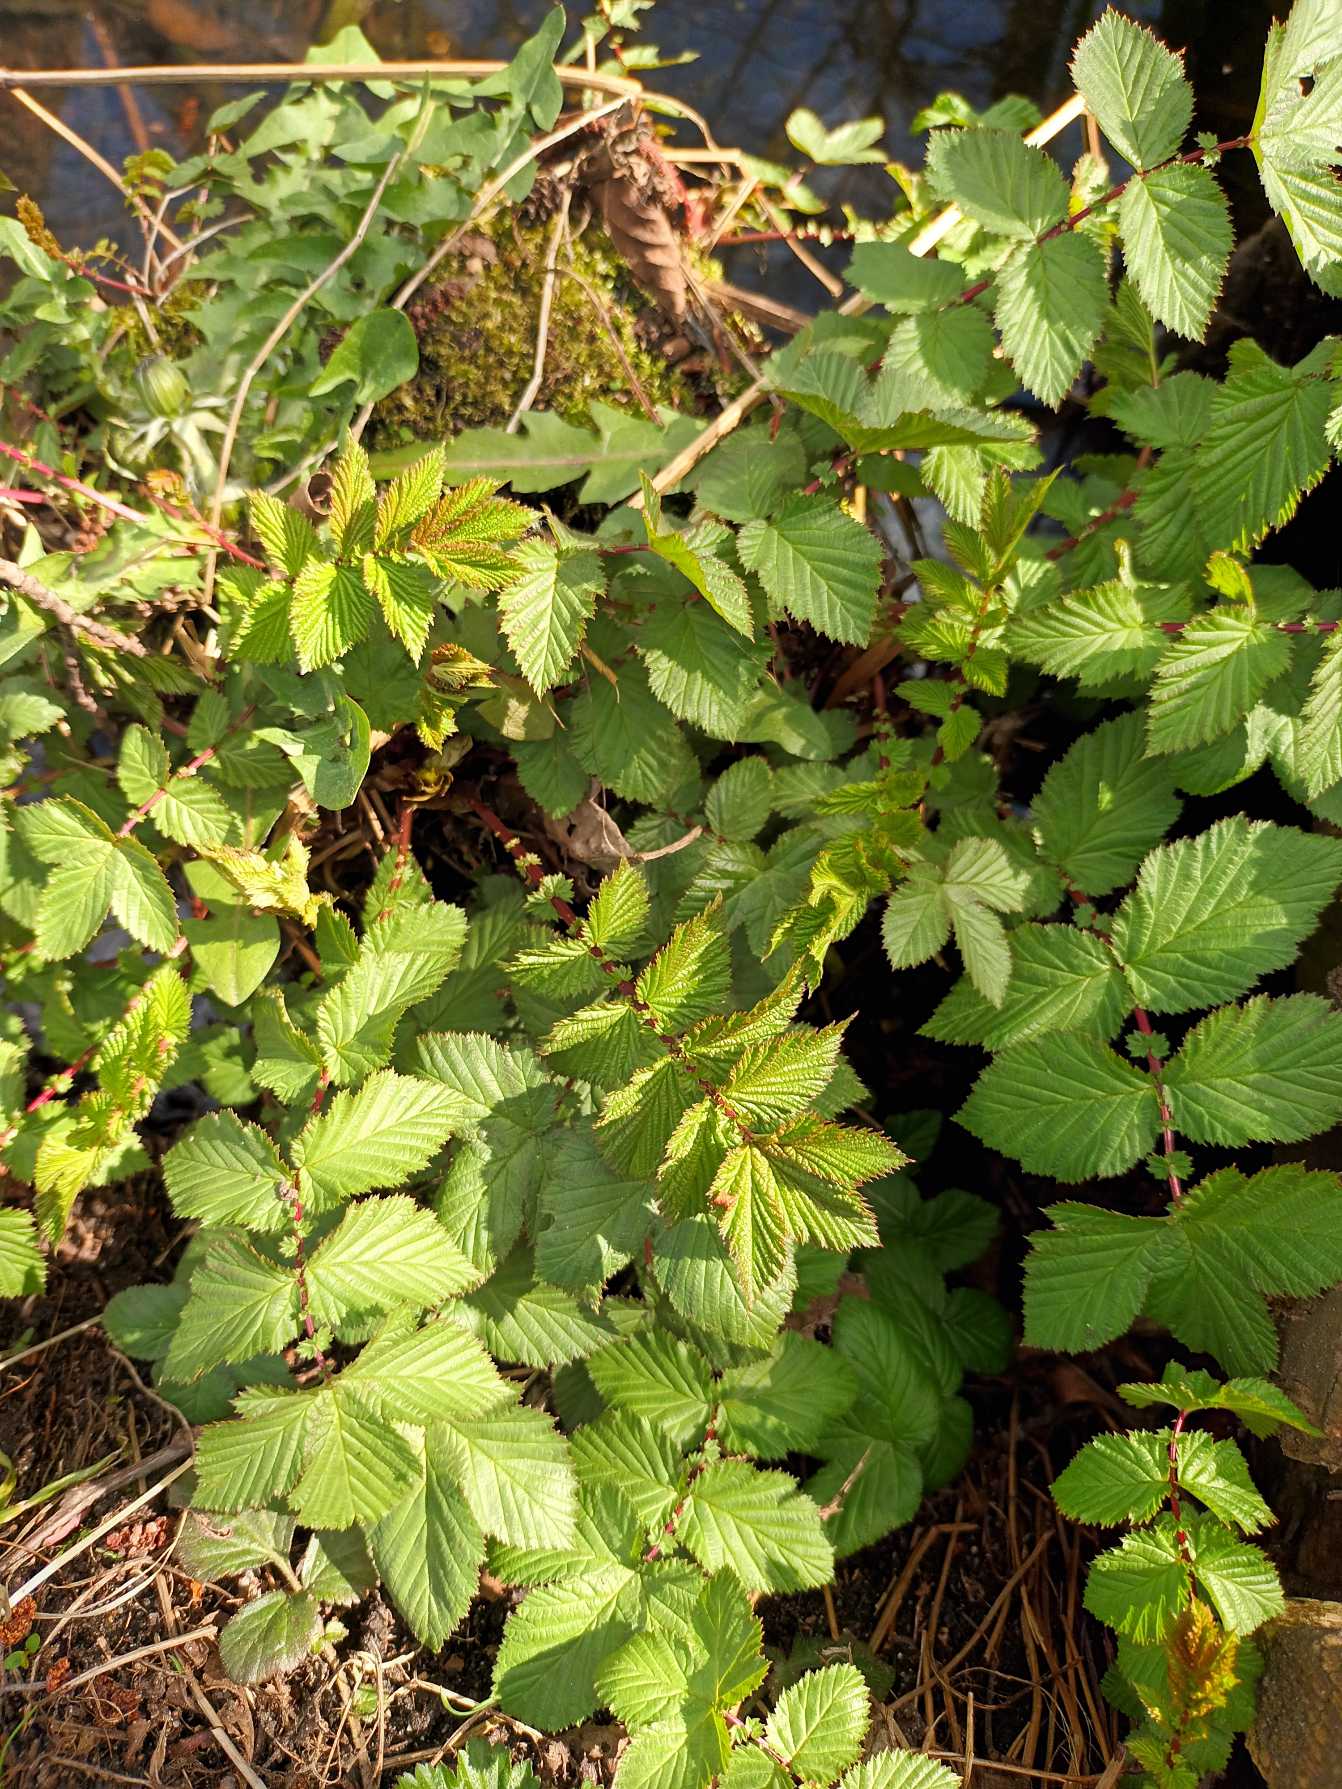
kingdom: Plantae
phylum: Tracheophyta
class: Magnoliopsida
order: Rosales
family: Rosaceae
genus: Filipendula
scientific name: Filipendula ulmaria
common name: Almindelig mjødurt
